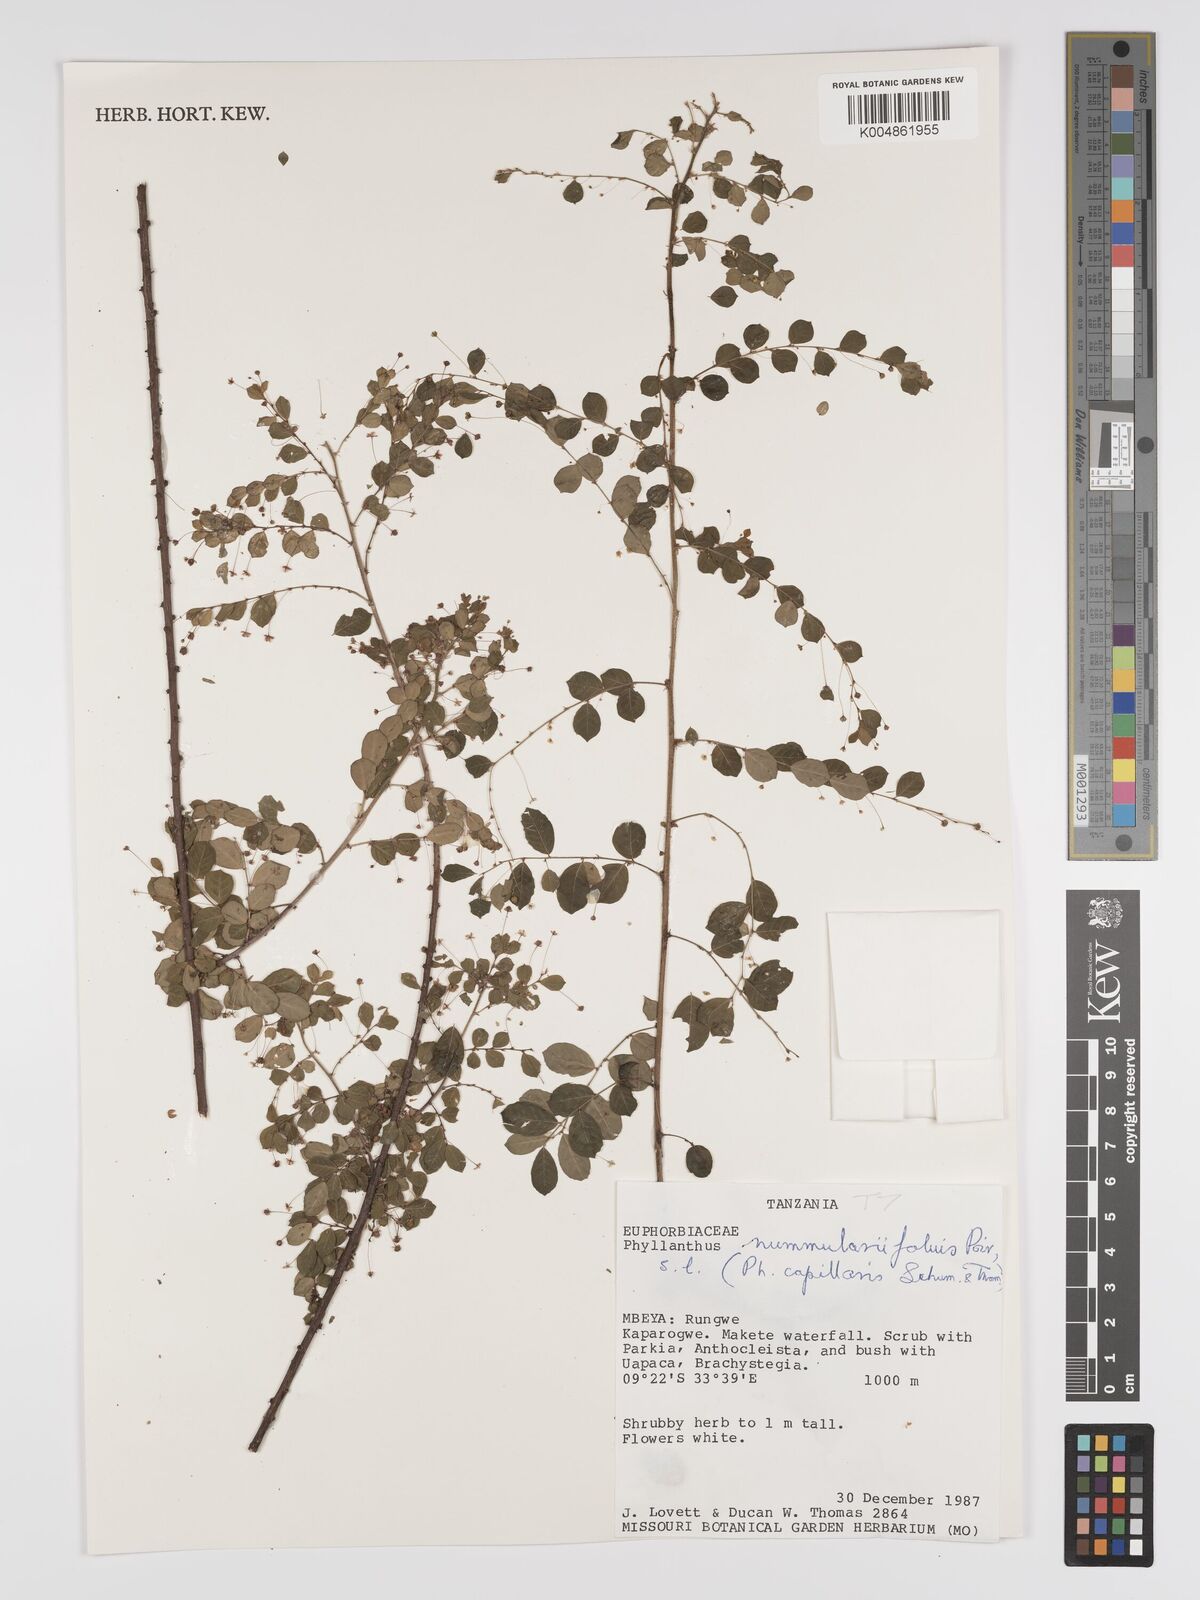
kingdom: Plantae
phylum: Tracheophyta
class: Magnoliopsida
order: Malpighiales
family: Phyllanthaceae
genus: Phyllanthus
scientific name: Phyllanthus nummulariifolius
